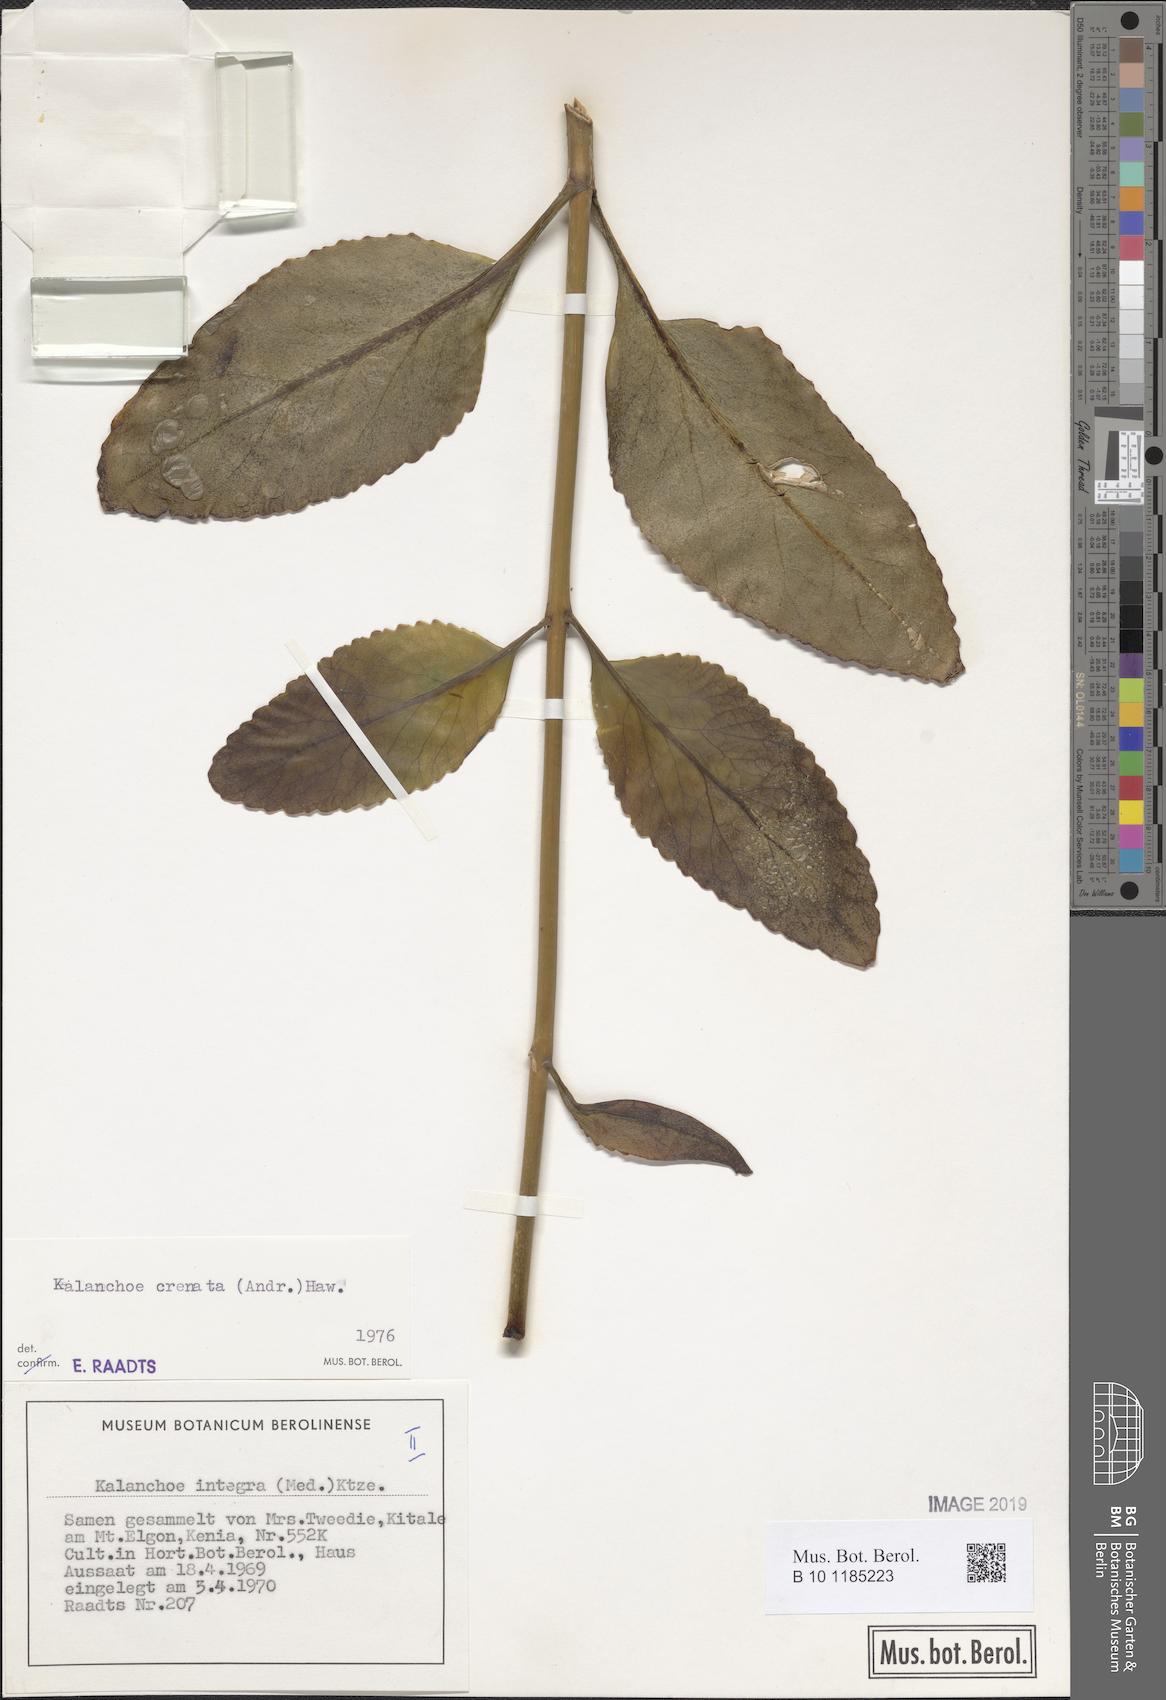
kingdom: Plantae
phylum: Tracheophyta
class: Magnoliopsida
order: Saxifragales
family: Crassulaceae
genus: Kalanchoe
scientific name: Kalanchoe crenata
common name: Neverdie
